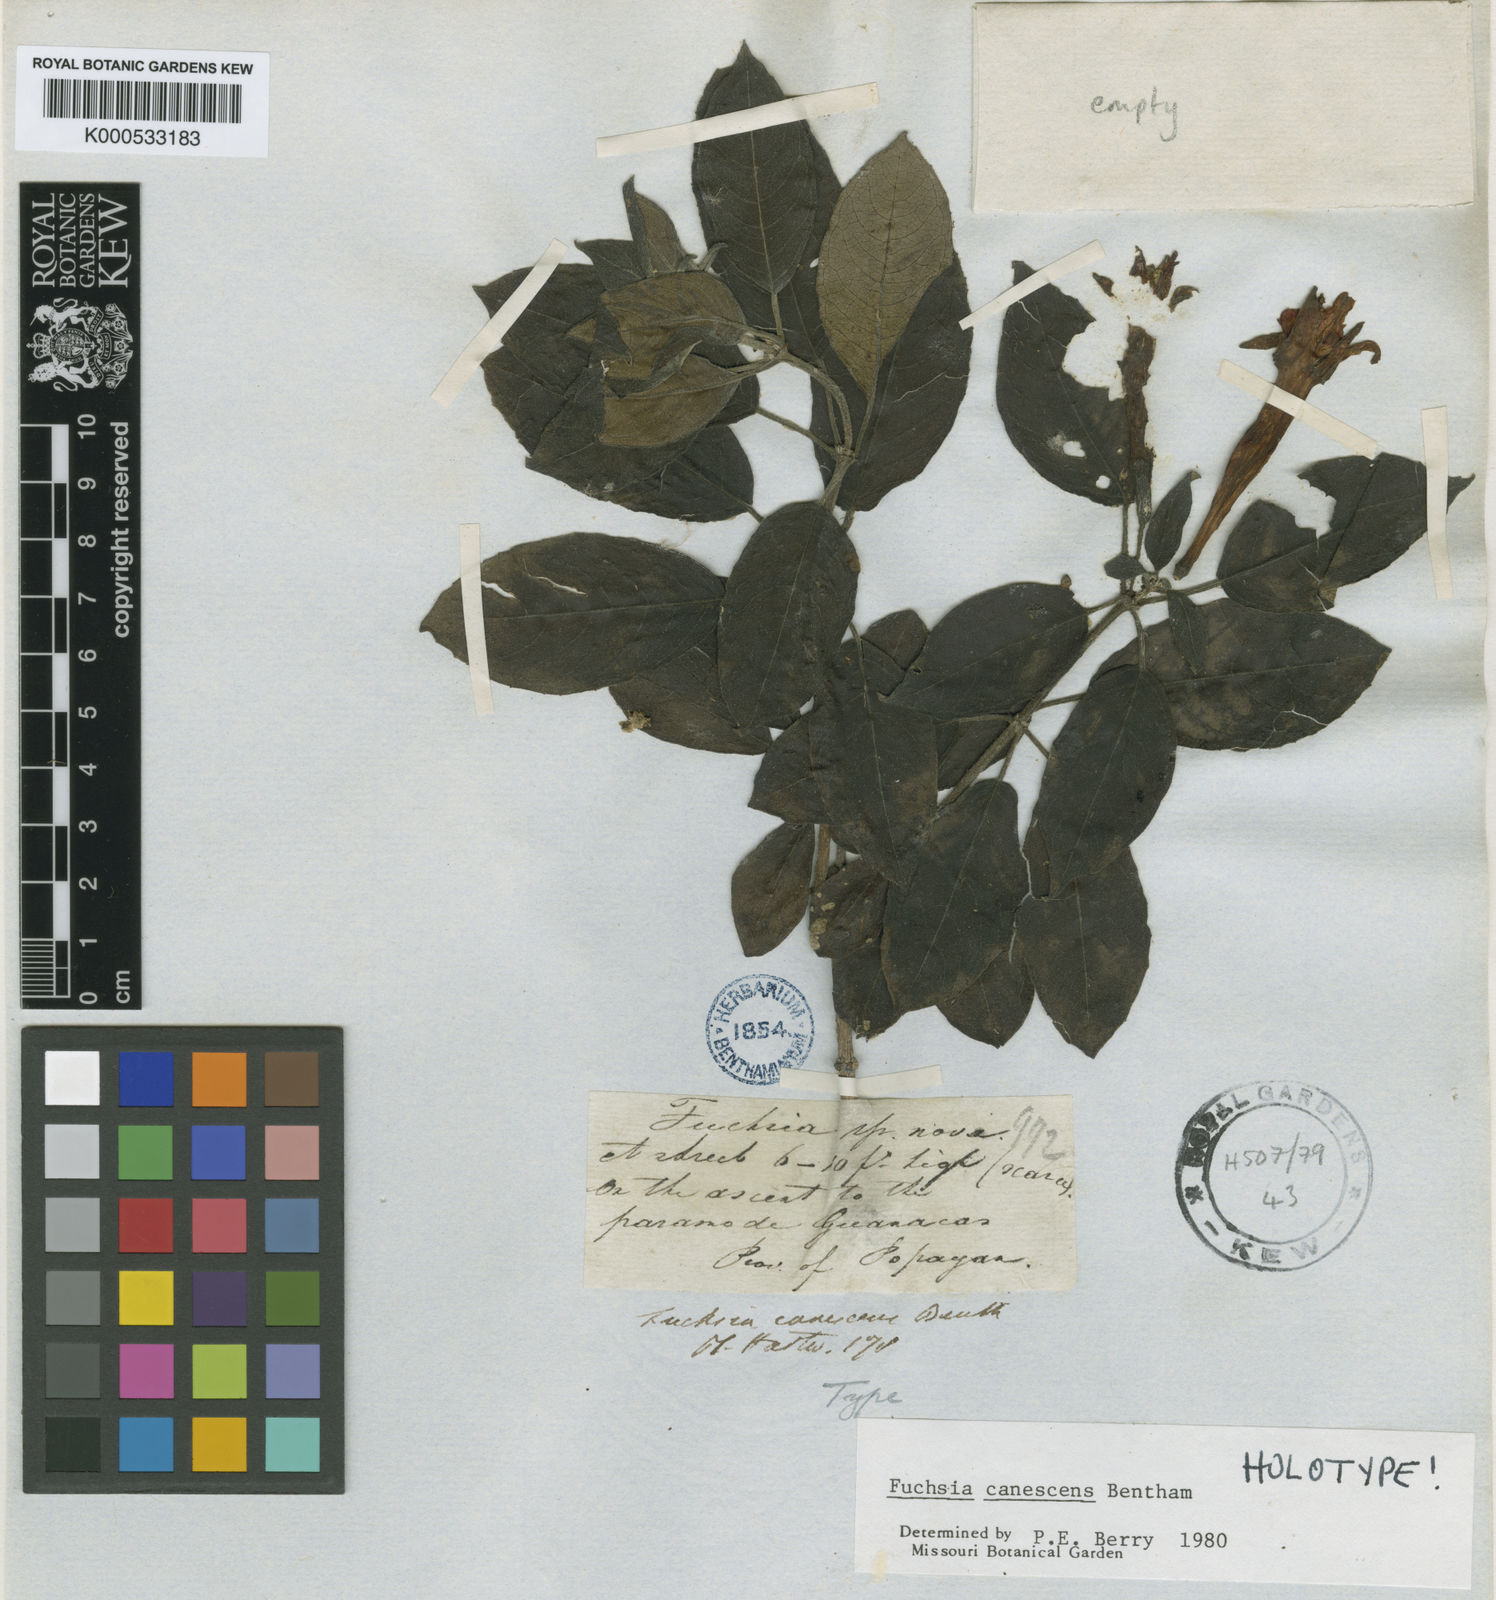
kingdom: Plantae
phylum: Tracheophyta
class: Magnoliopsida
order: Myrtales
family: Onagraceae
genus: Fuchsia
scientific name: Fuchsia canescens
